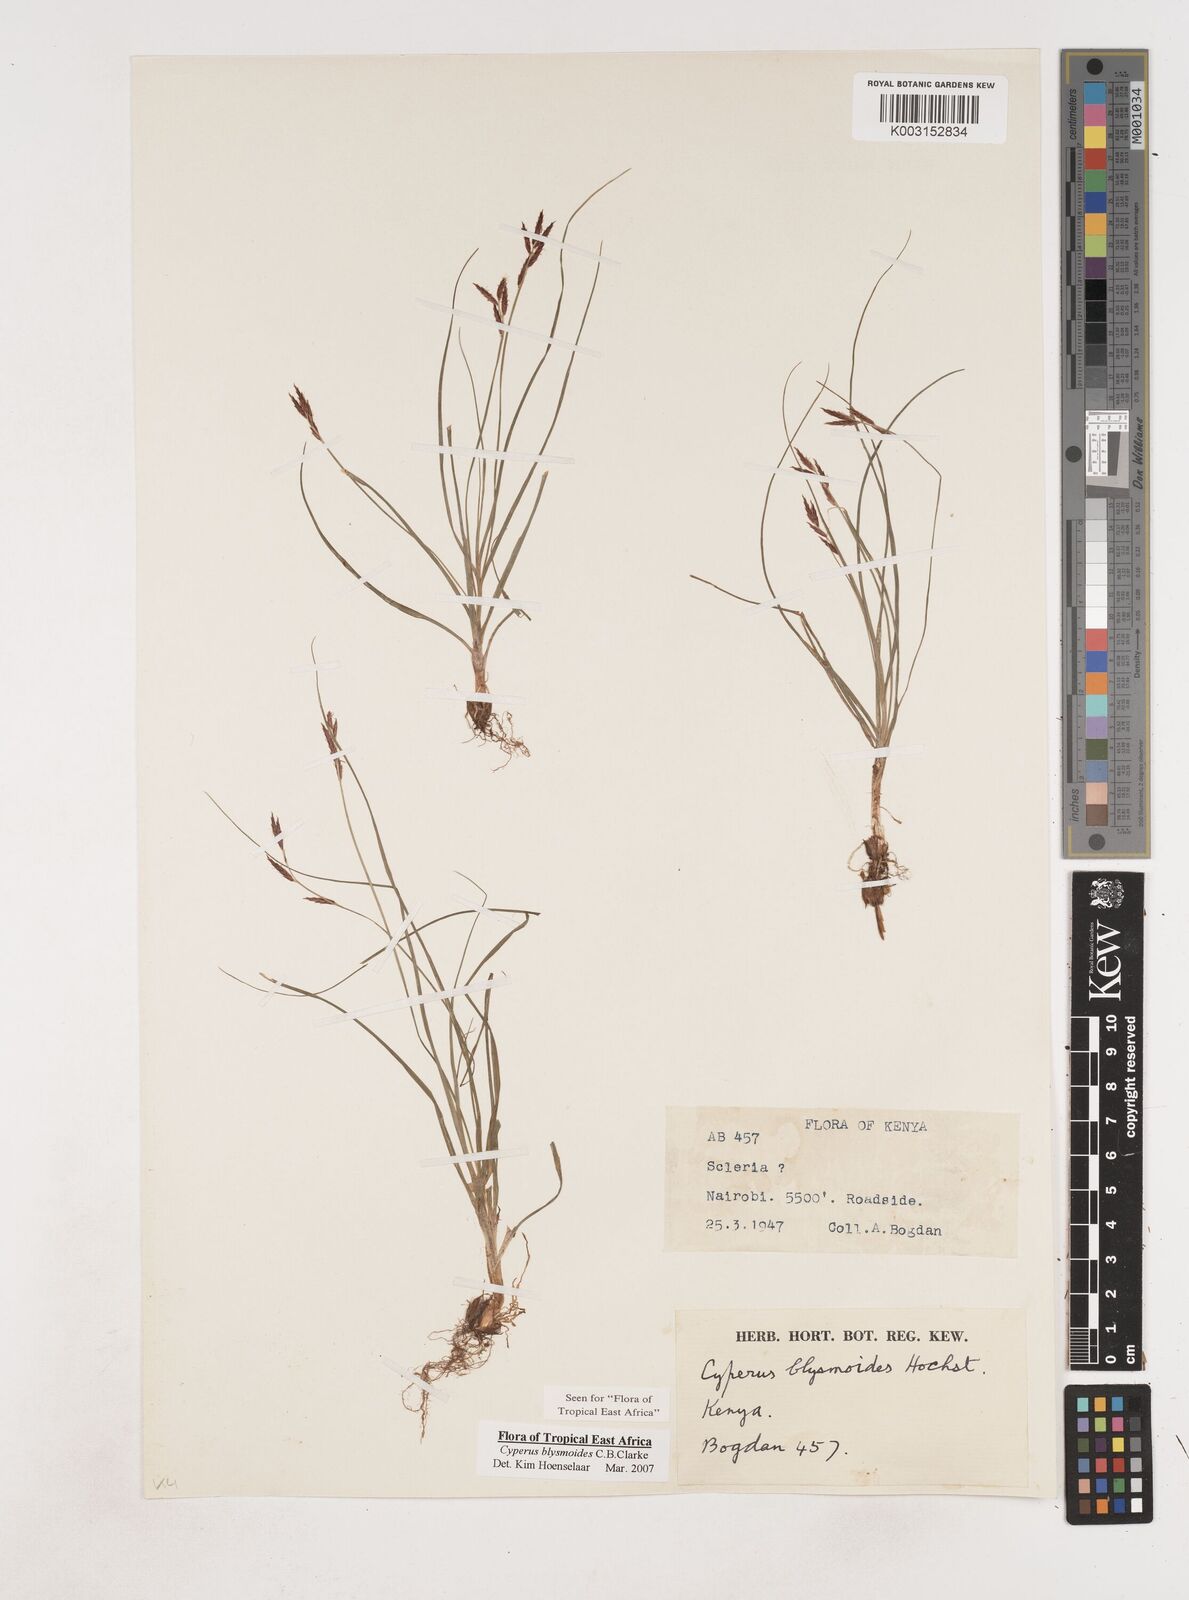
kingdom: Plantae
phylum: Tracheophyta
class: Liliopsida
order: Poales
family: Cyperaceae
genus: Cyperus
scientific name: Cyperus blysmoides
